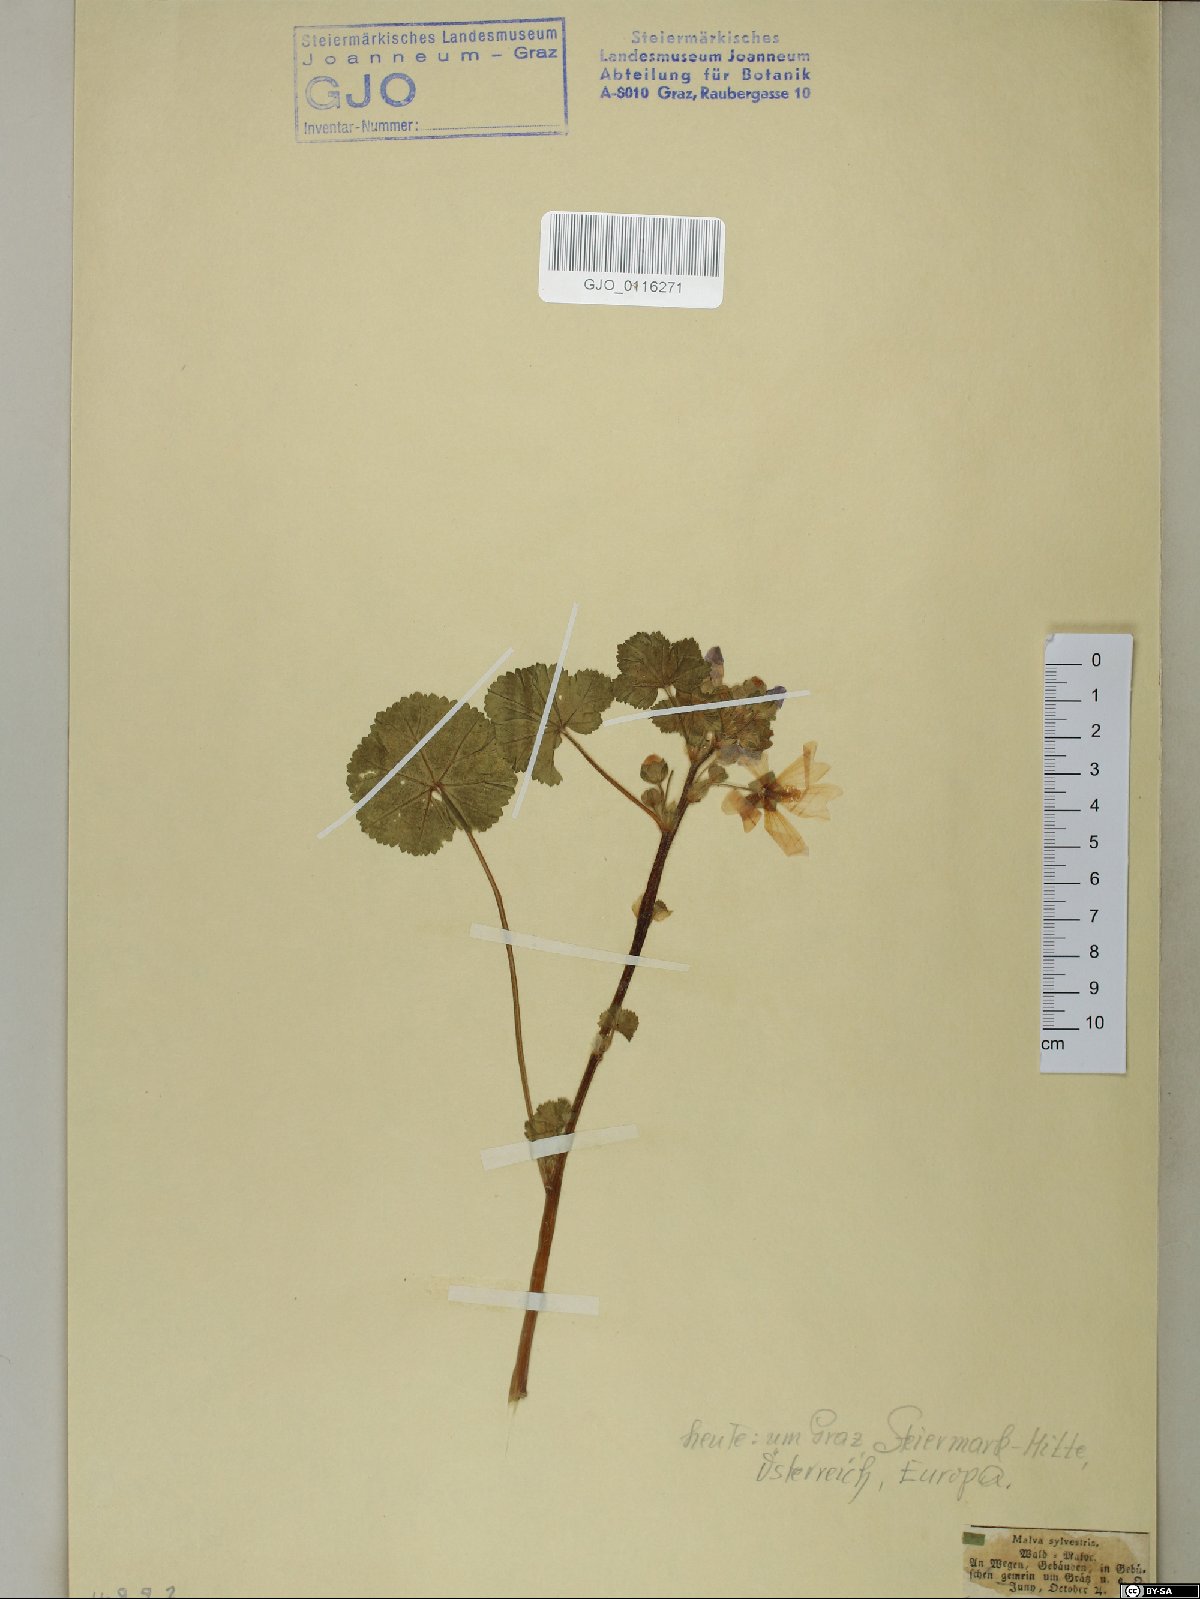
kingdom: Plantae
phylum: Tracheophyta
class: Magnoliopsida
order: Malvales
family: Malvaceae
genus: Malva
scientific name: Malva sylvestris
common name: Common mallow
